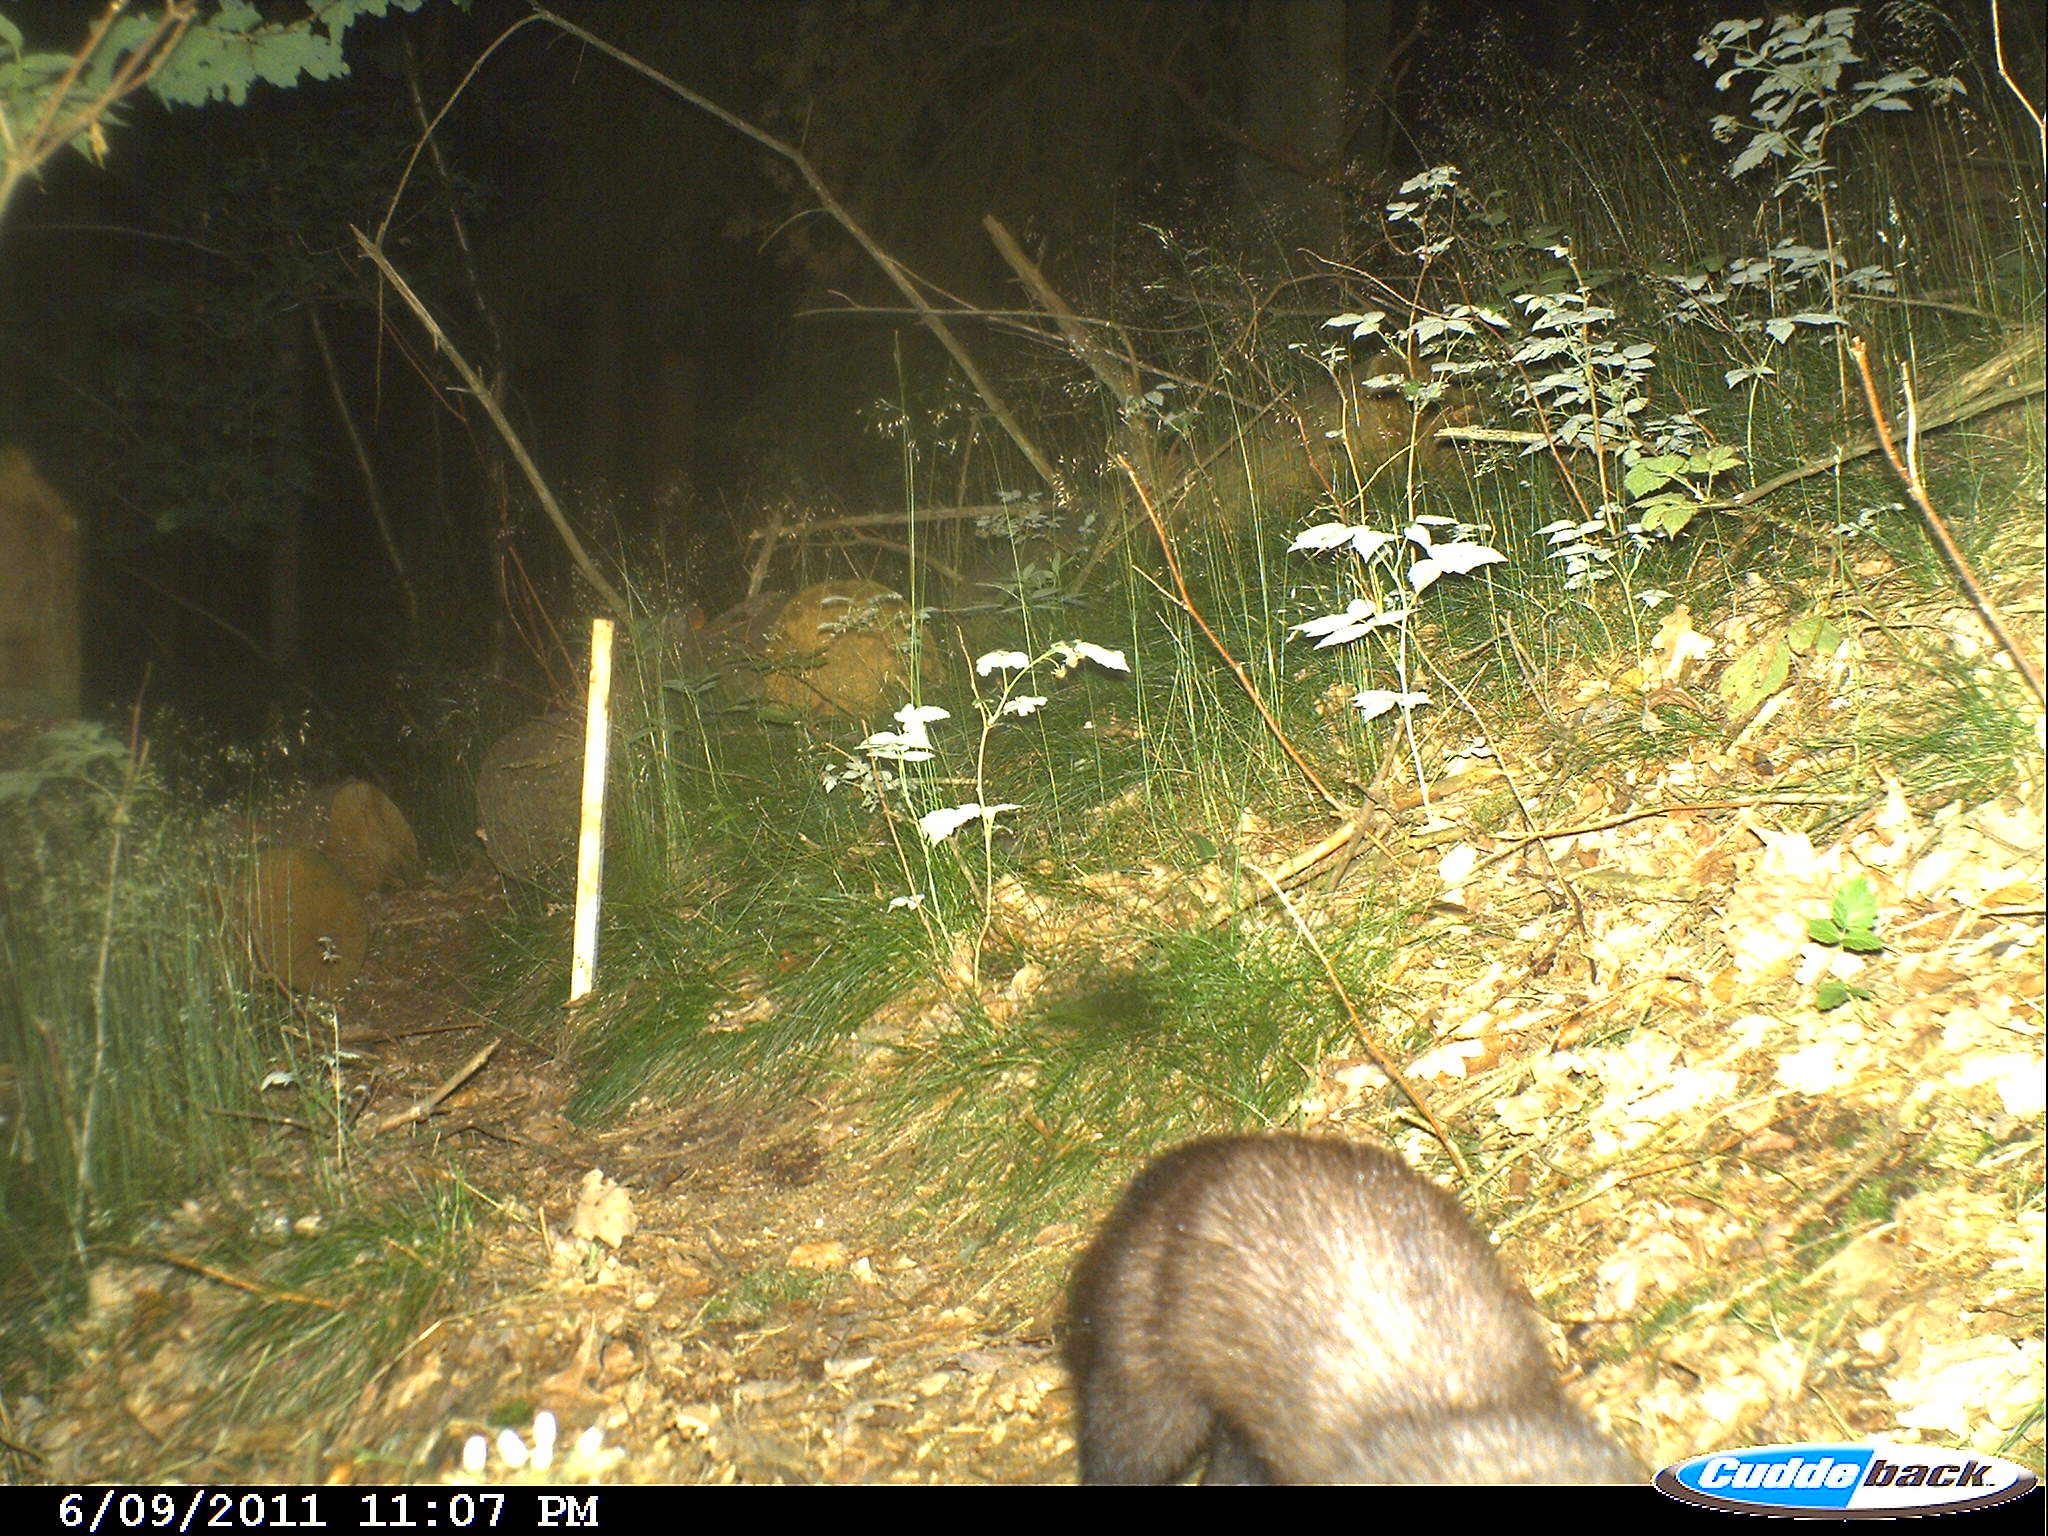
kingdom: Animalia
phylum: Chordata
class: Mammalia
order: Carnivora
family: Mustelidae
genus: Martes
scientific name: Martes
